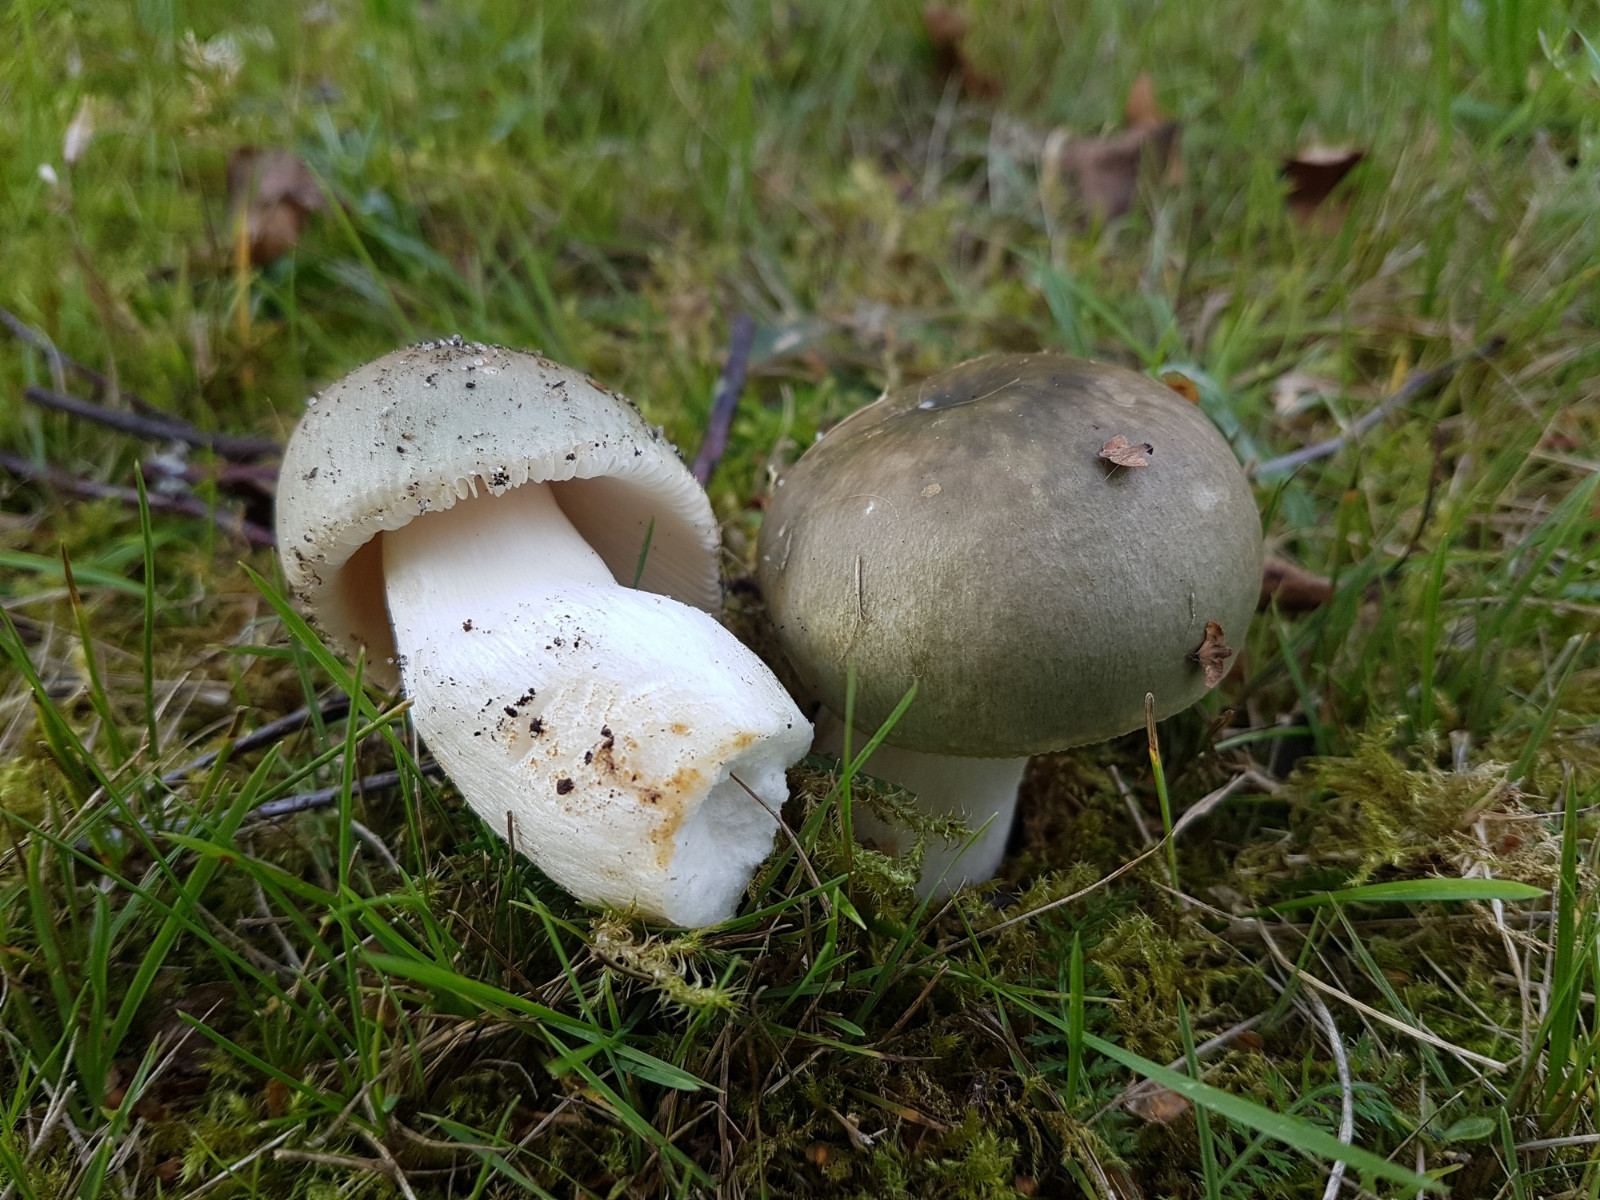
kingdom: Fungi
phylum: Basidiomycota
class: Agaricomycetes
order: Russulales
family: Russulaceae
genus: Russula
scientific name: Russula aeruginea
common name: græsgrøn skørhat
